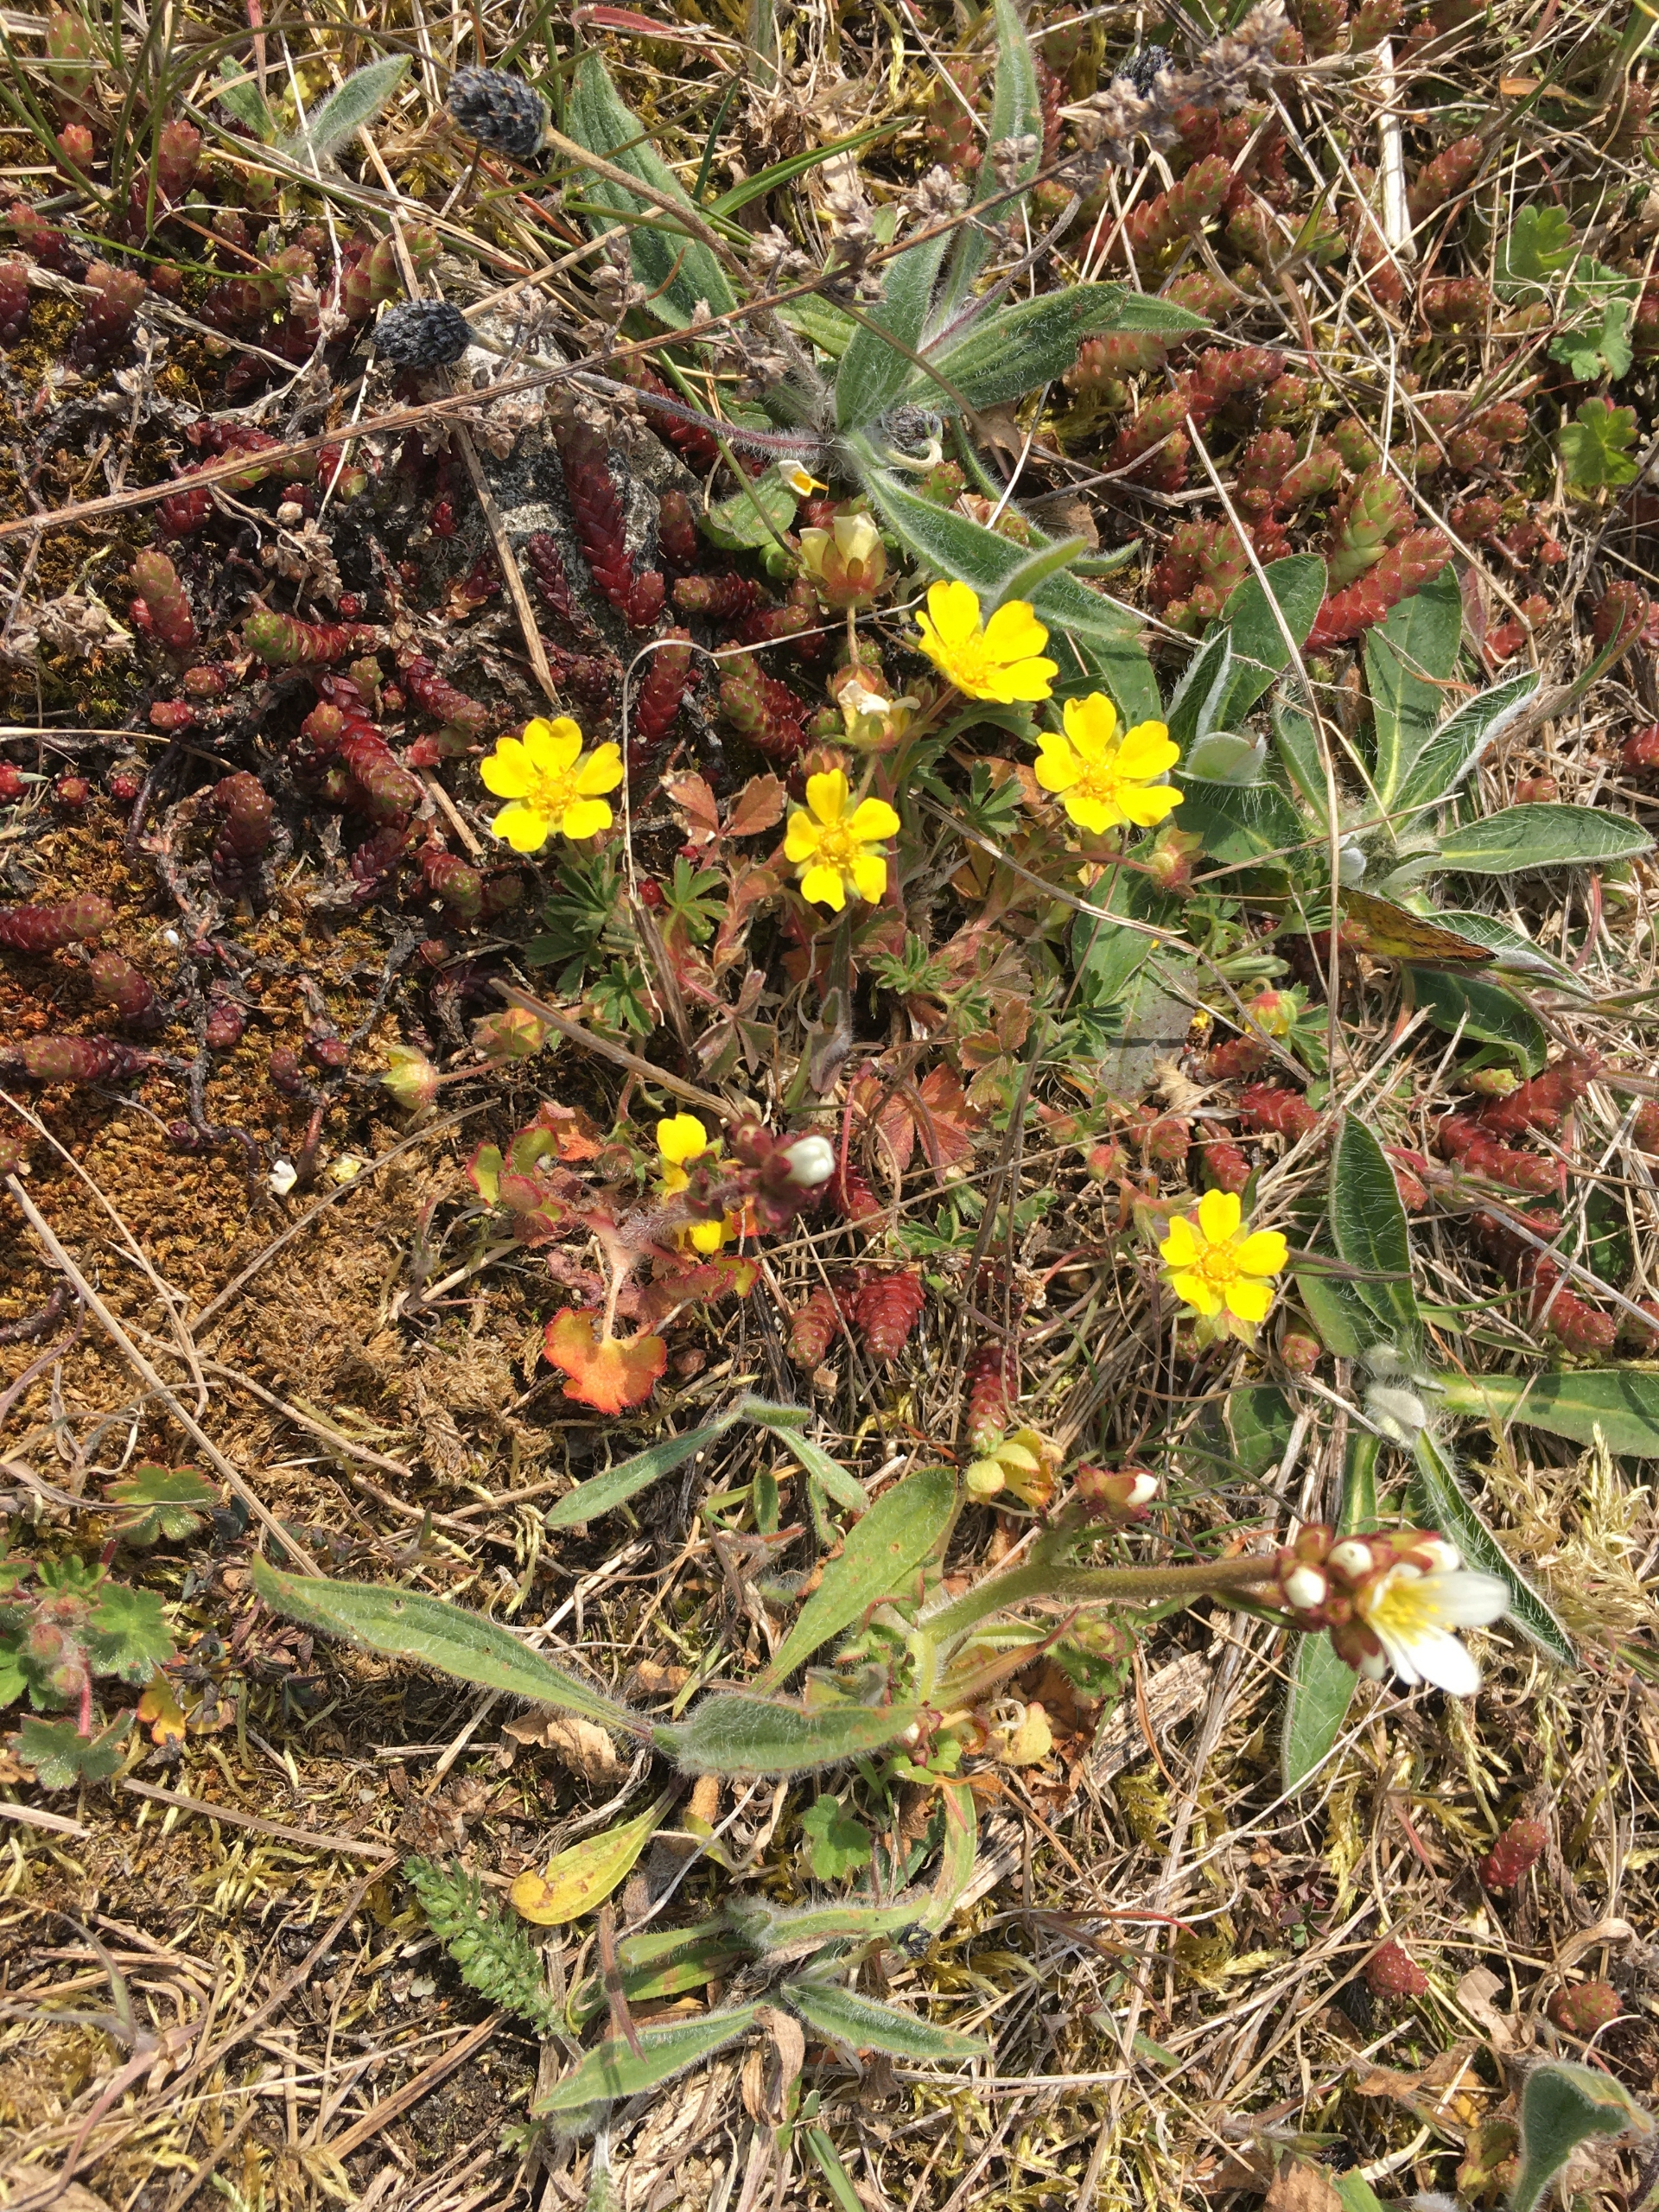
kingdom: Plantae
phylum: Tracheophyta
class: Magnoliopsida
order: Rosales
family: Rosaceae
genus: Potentilla
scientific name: Potentilla subarenaria
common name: Grå vår-potentil
